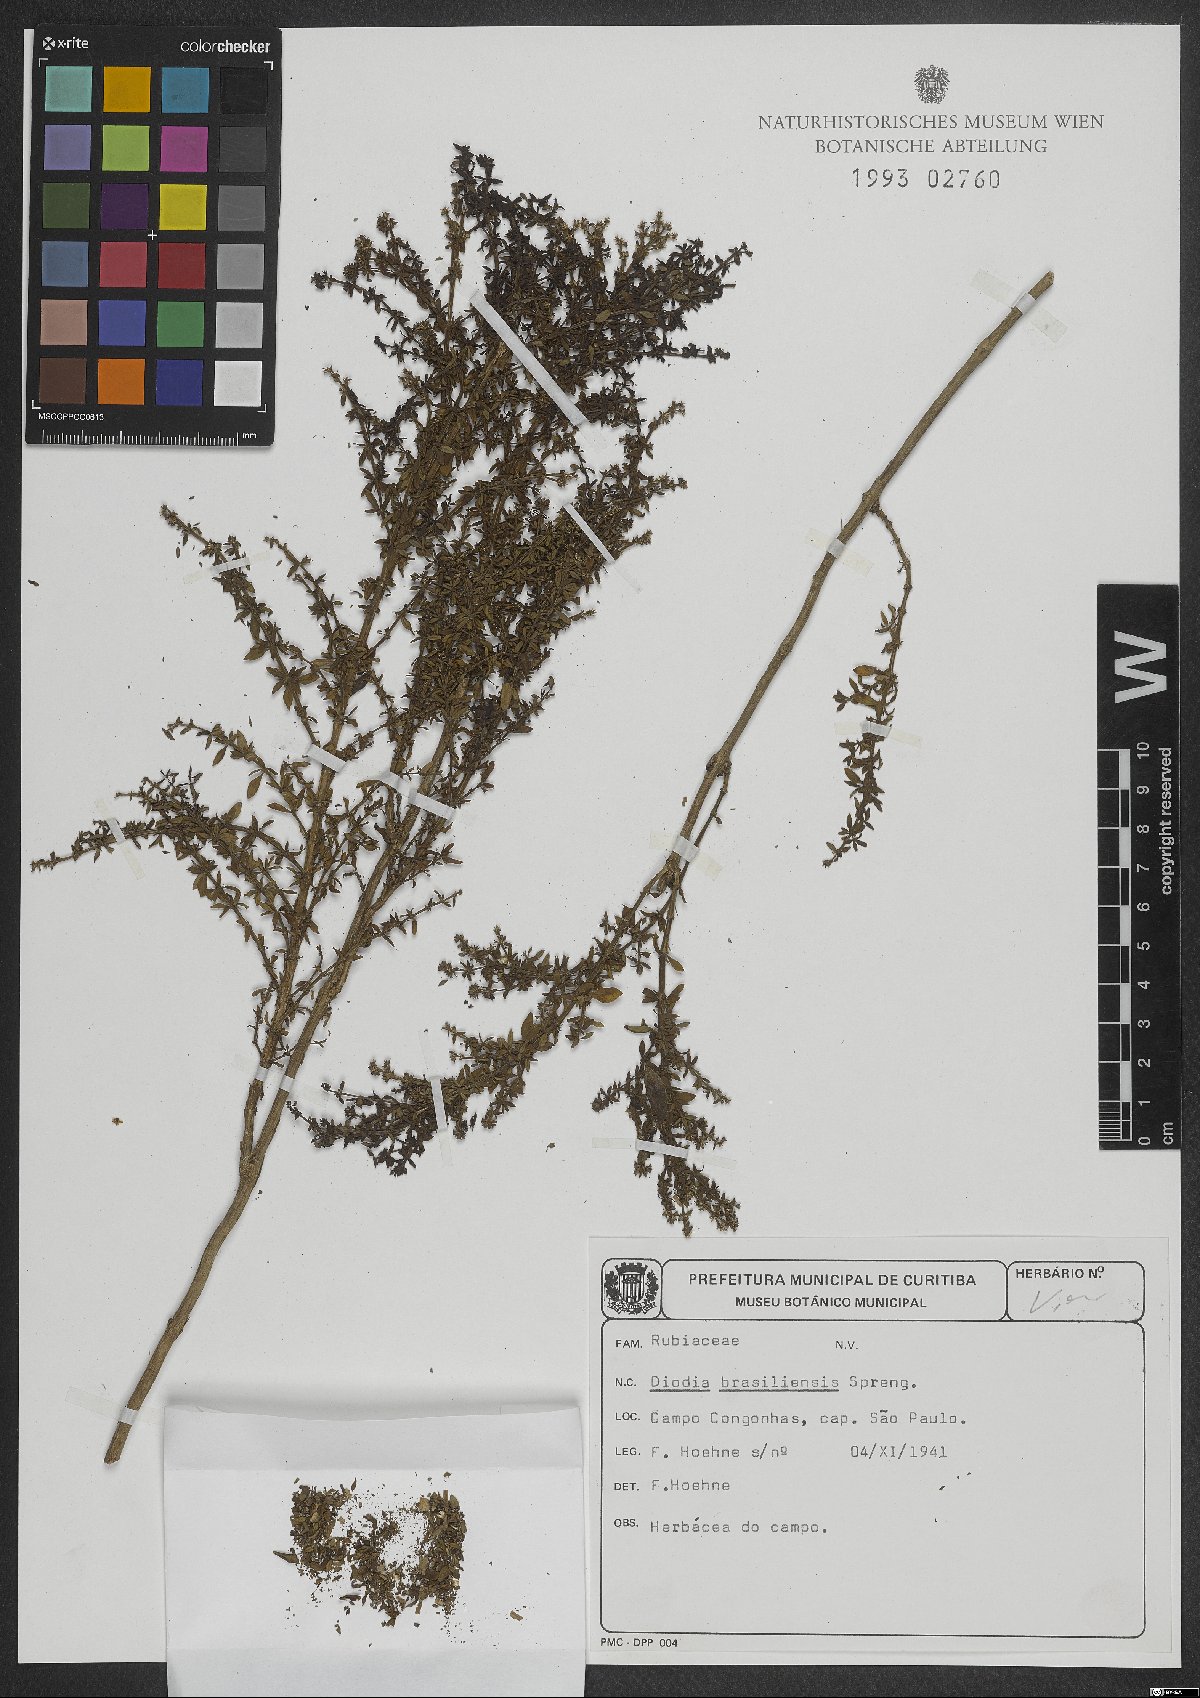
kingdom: Plantae
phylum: Tracheophyta
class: Magnoliopsida
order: Gentianales
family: Rubiaceae
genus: Galianthe
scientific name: Galianthe brasiliensis
